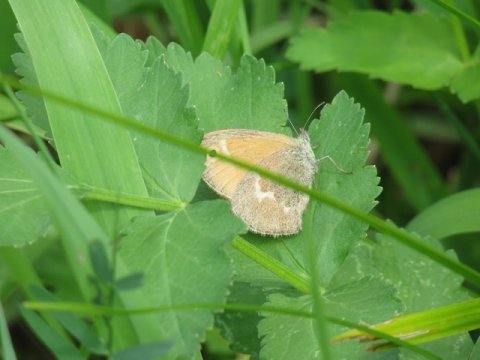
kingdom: Animalia
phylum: Arthropoda
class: Insecta
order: Lepidoptera
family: Nymphalidae
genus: Coenonympha
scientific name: Coenonympha tullia
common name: Large Heath
